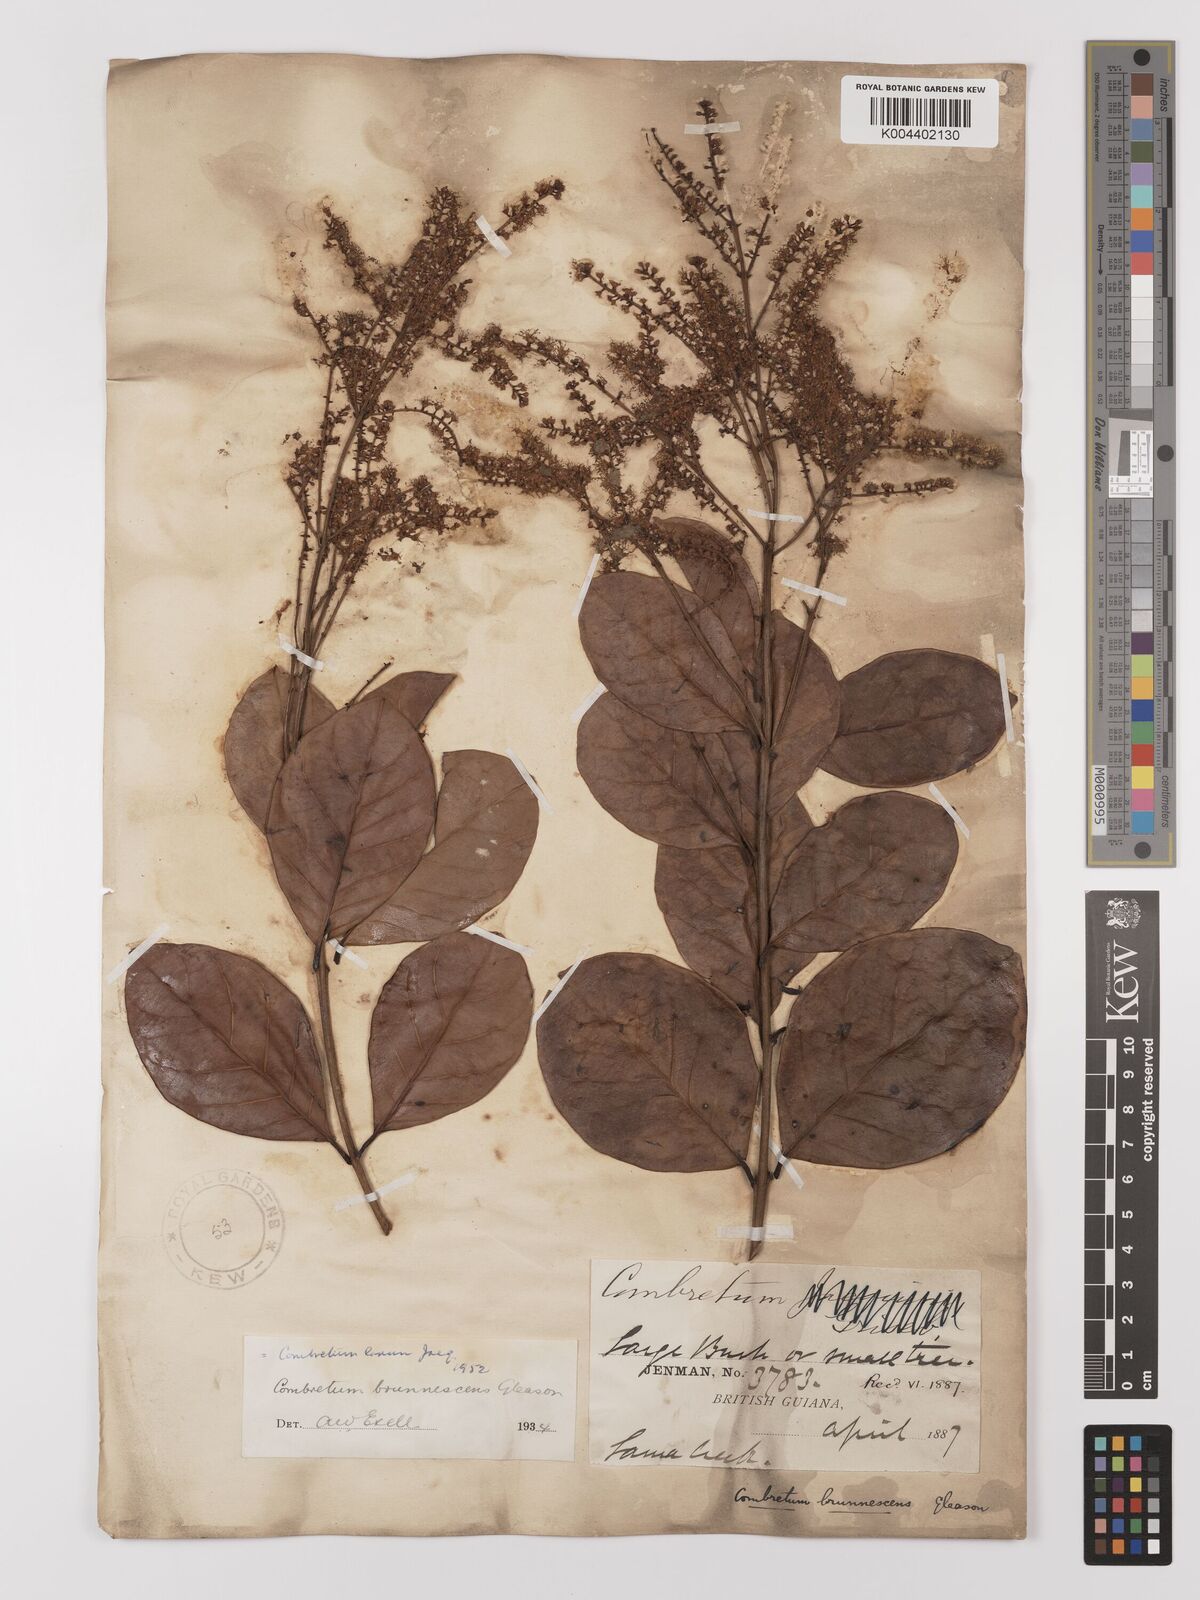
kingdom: Plantae
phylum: Tracheophyta
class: Magnoliopsida
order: Myrtales
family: Combretaceae
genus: Combretum
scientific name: Combretum
